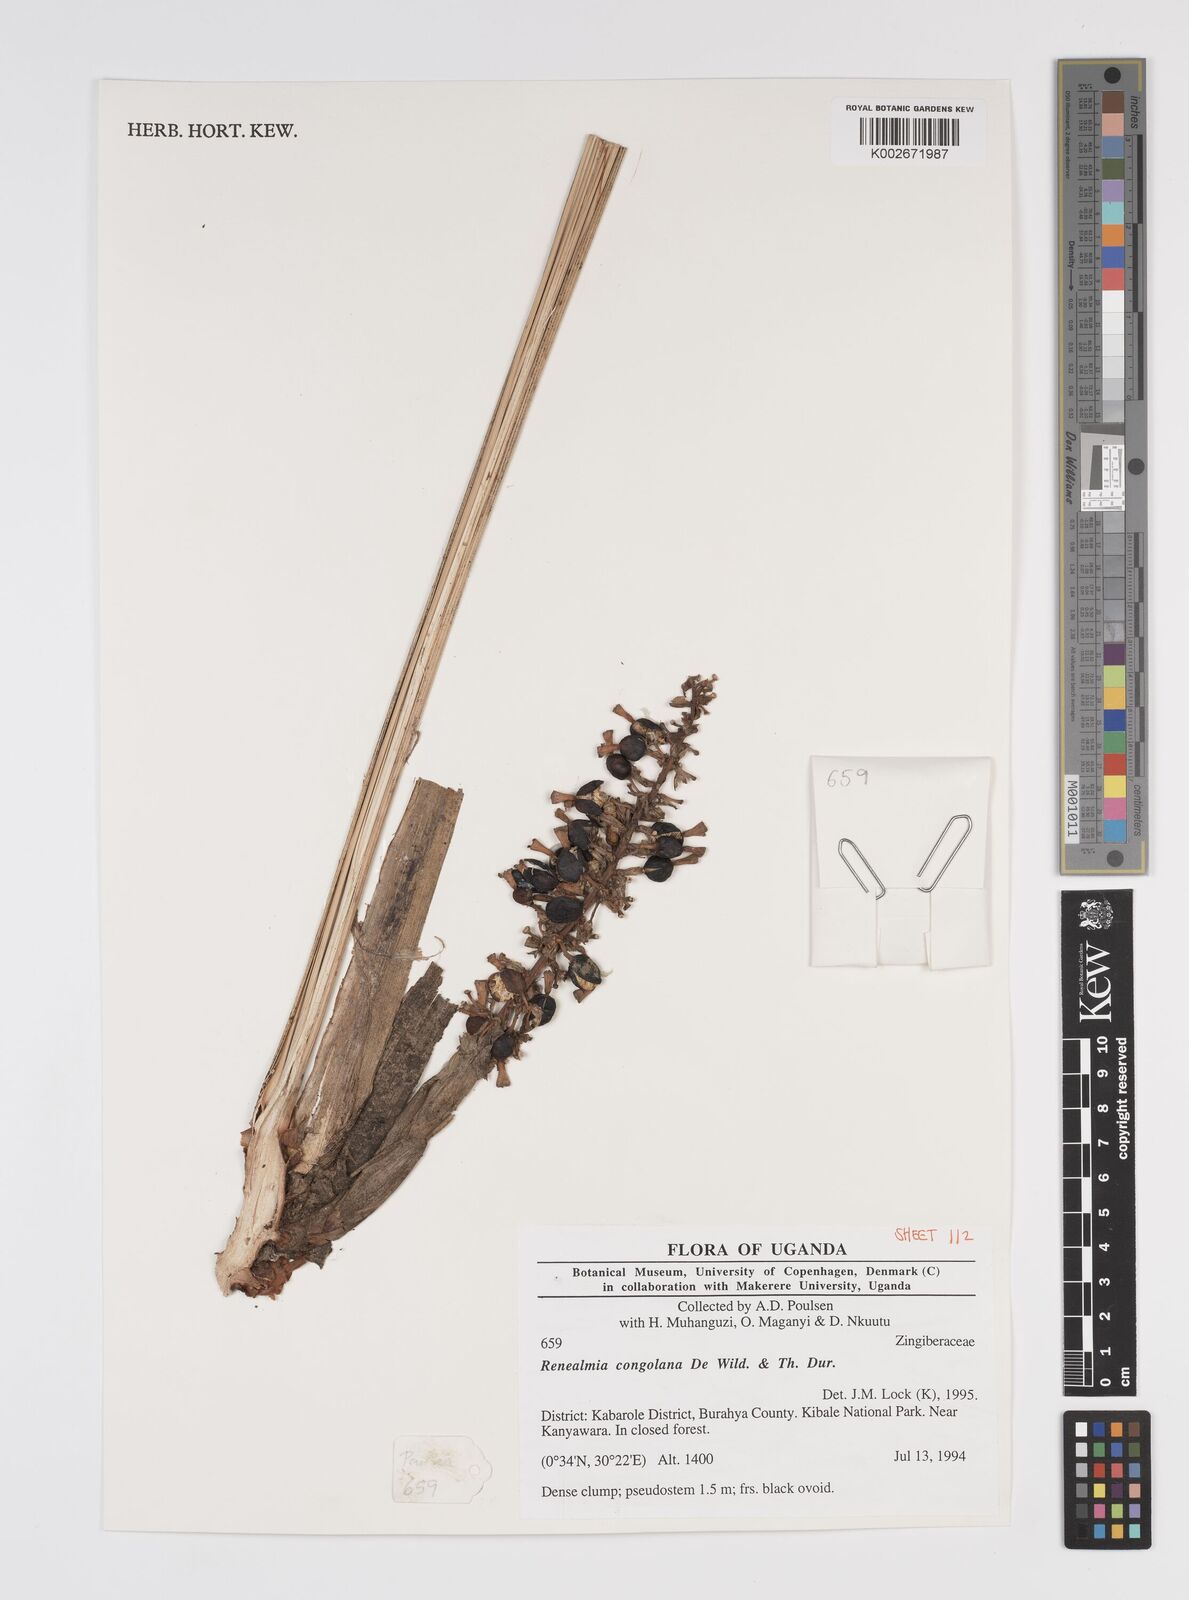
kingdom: Plantae
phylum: Tracheophyta
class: Liliopsida
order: Zingiberales
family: Zingiberaceae
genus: Renealmia
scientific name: Renealmia congolana
